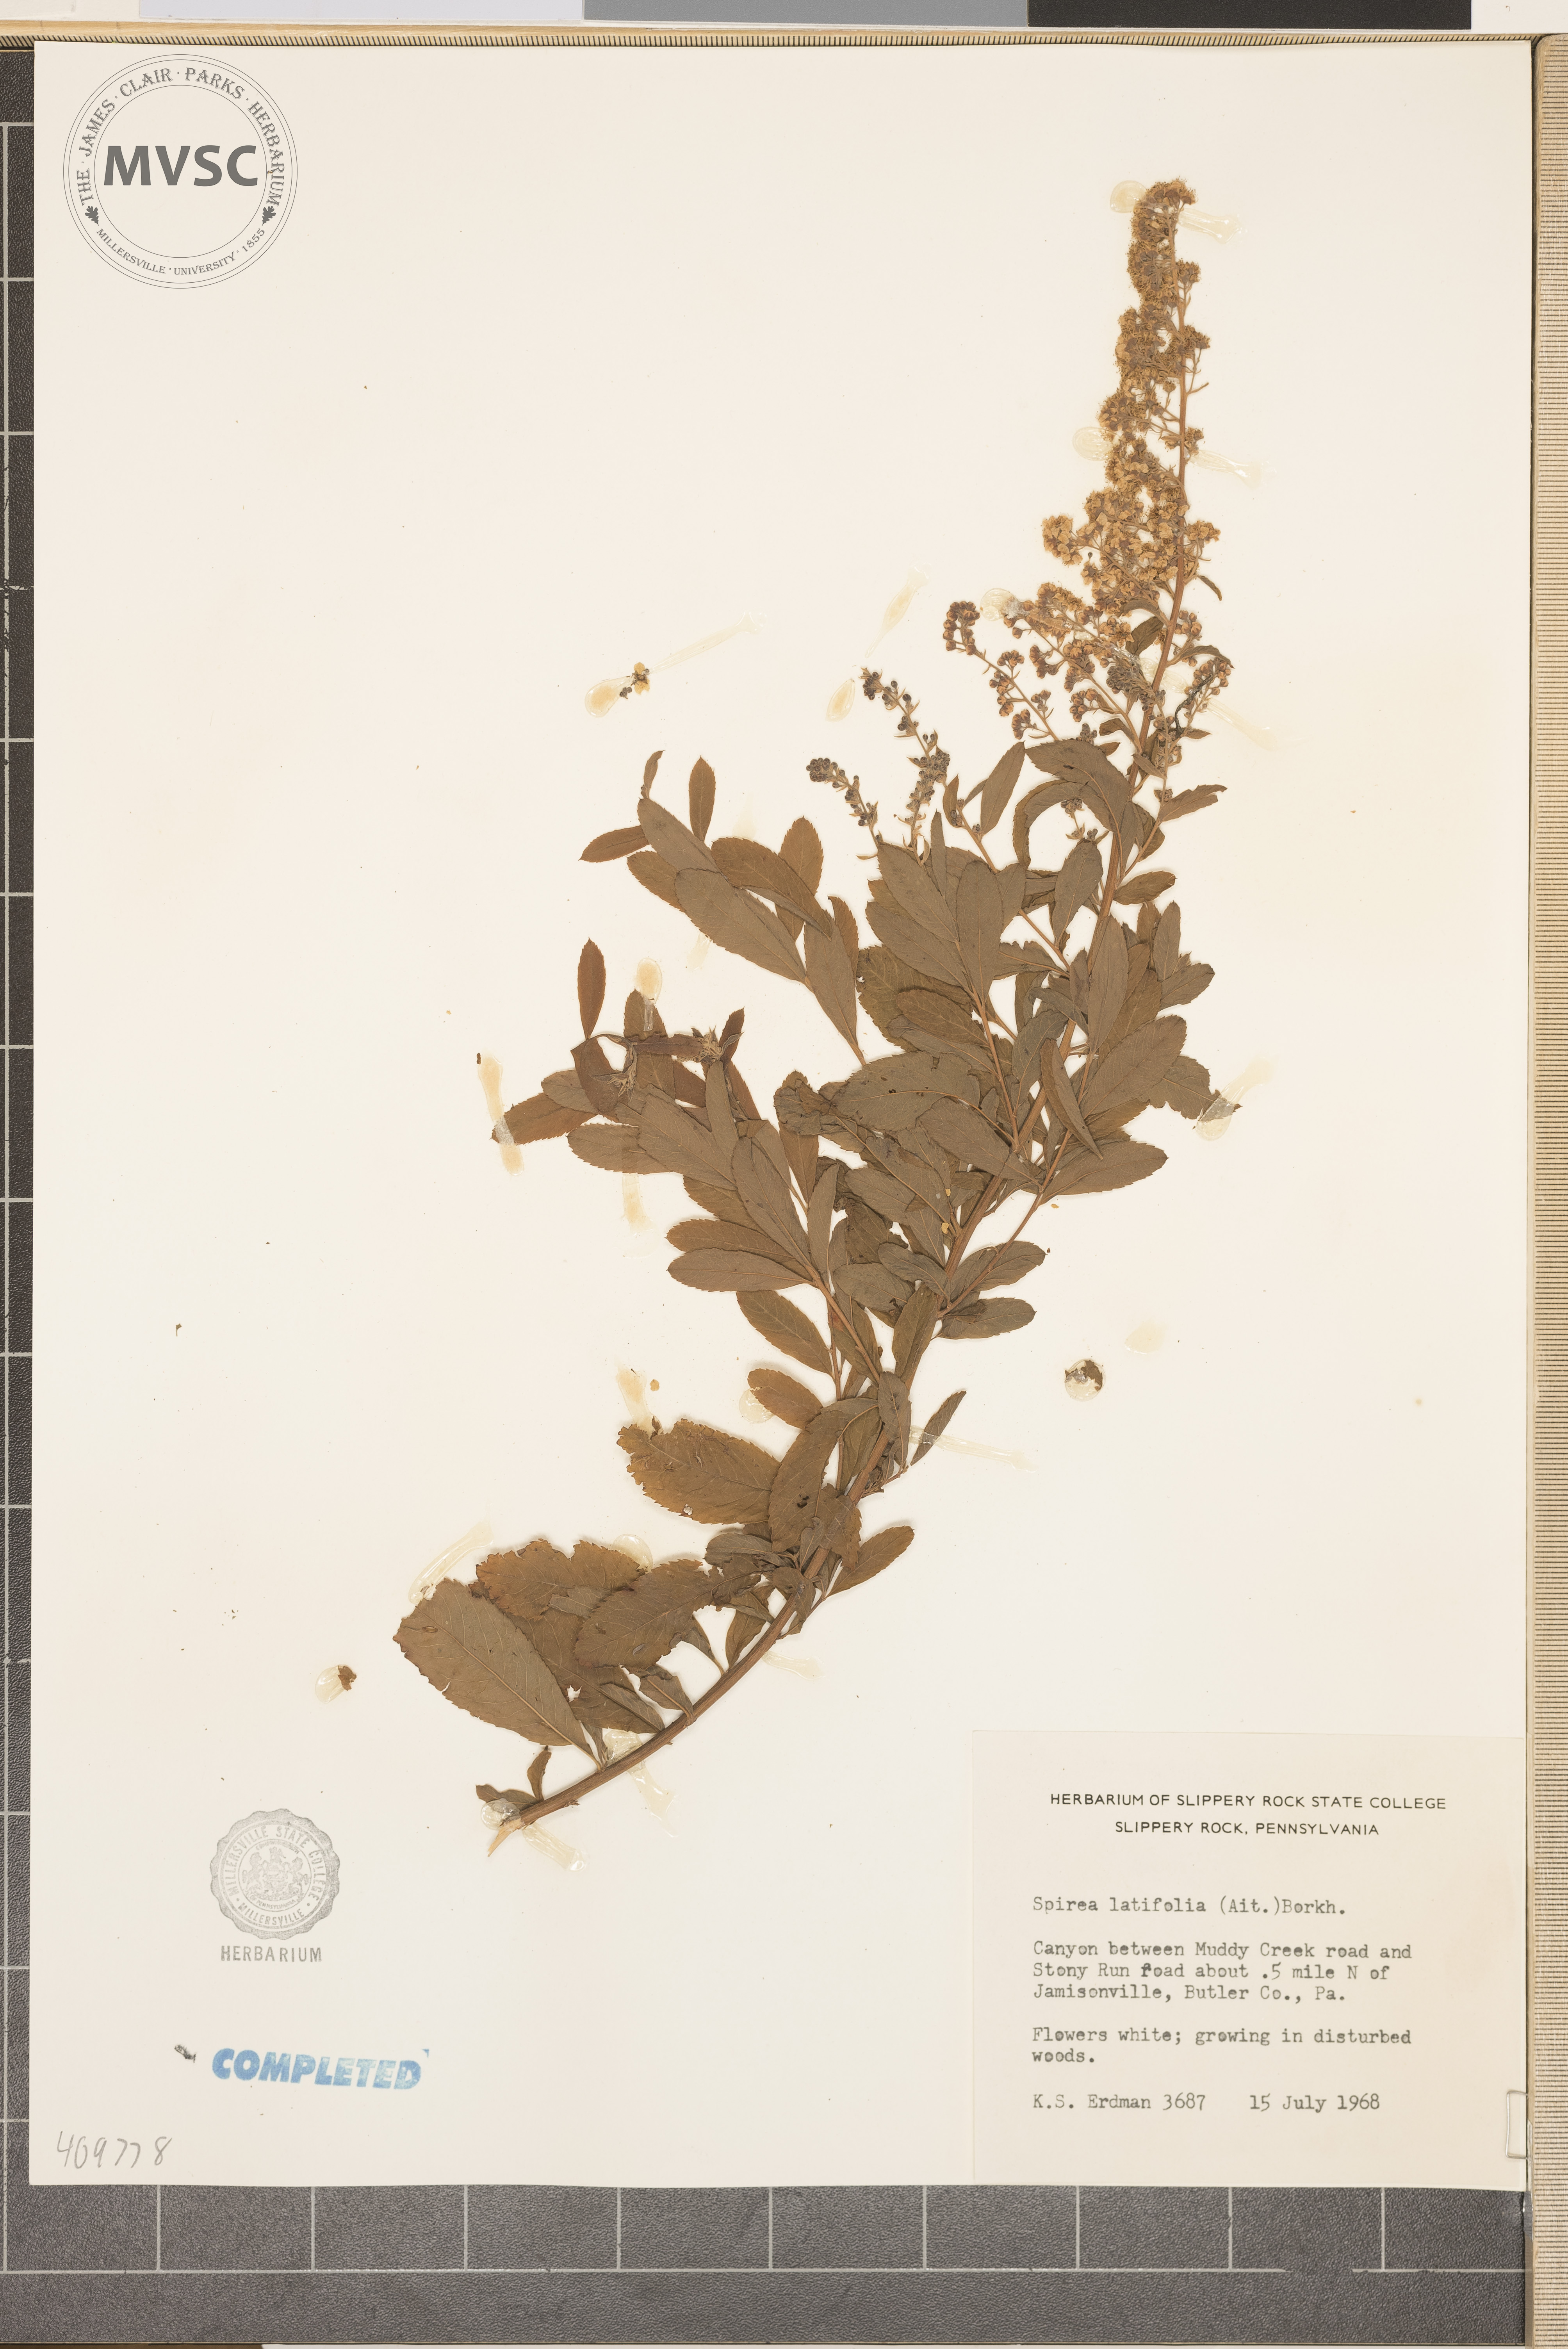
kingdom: Plantae
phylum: Tracheophyta
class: Magnoliopsida
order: Rosales
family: Rosaceae
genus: Spiraea
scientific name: Spiraea alba
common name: Pale bridewort
